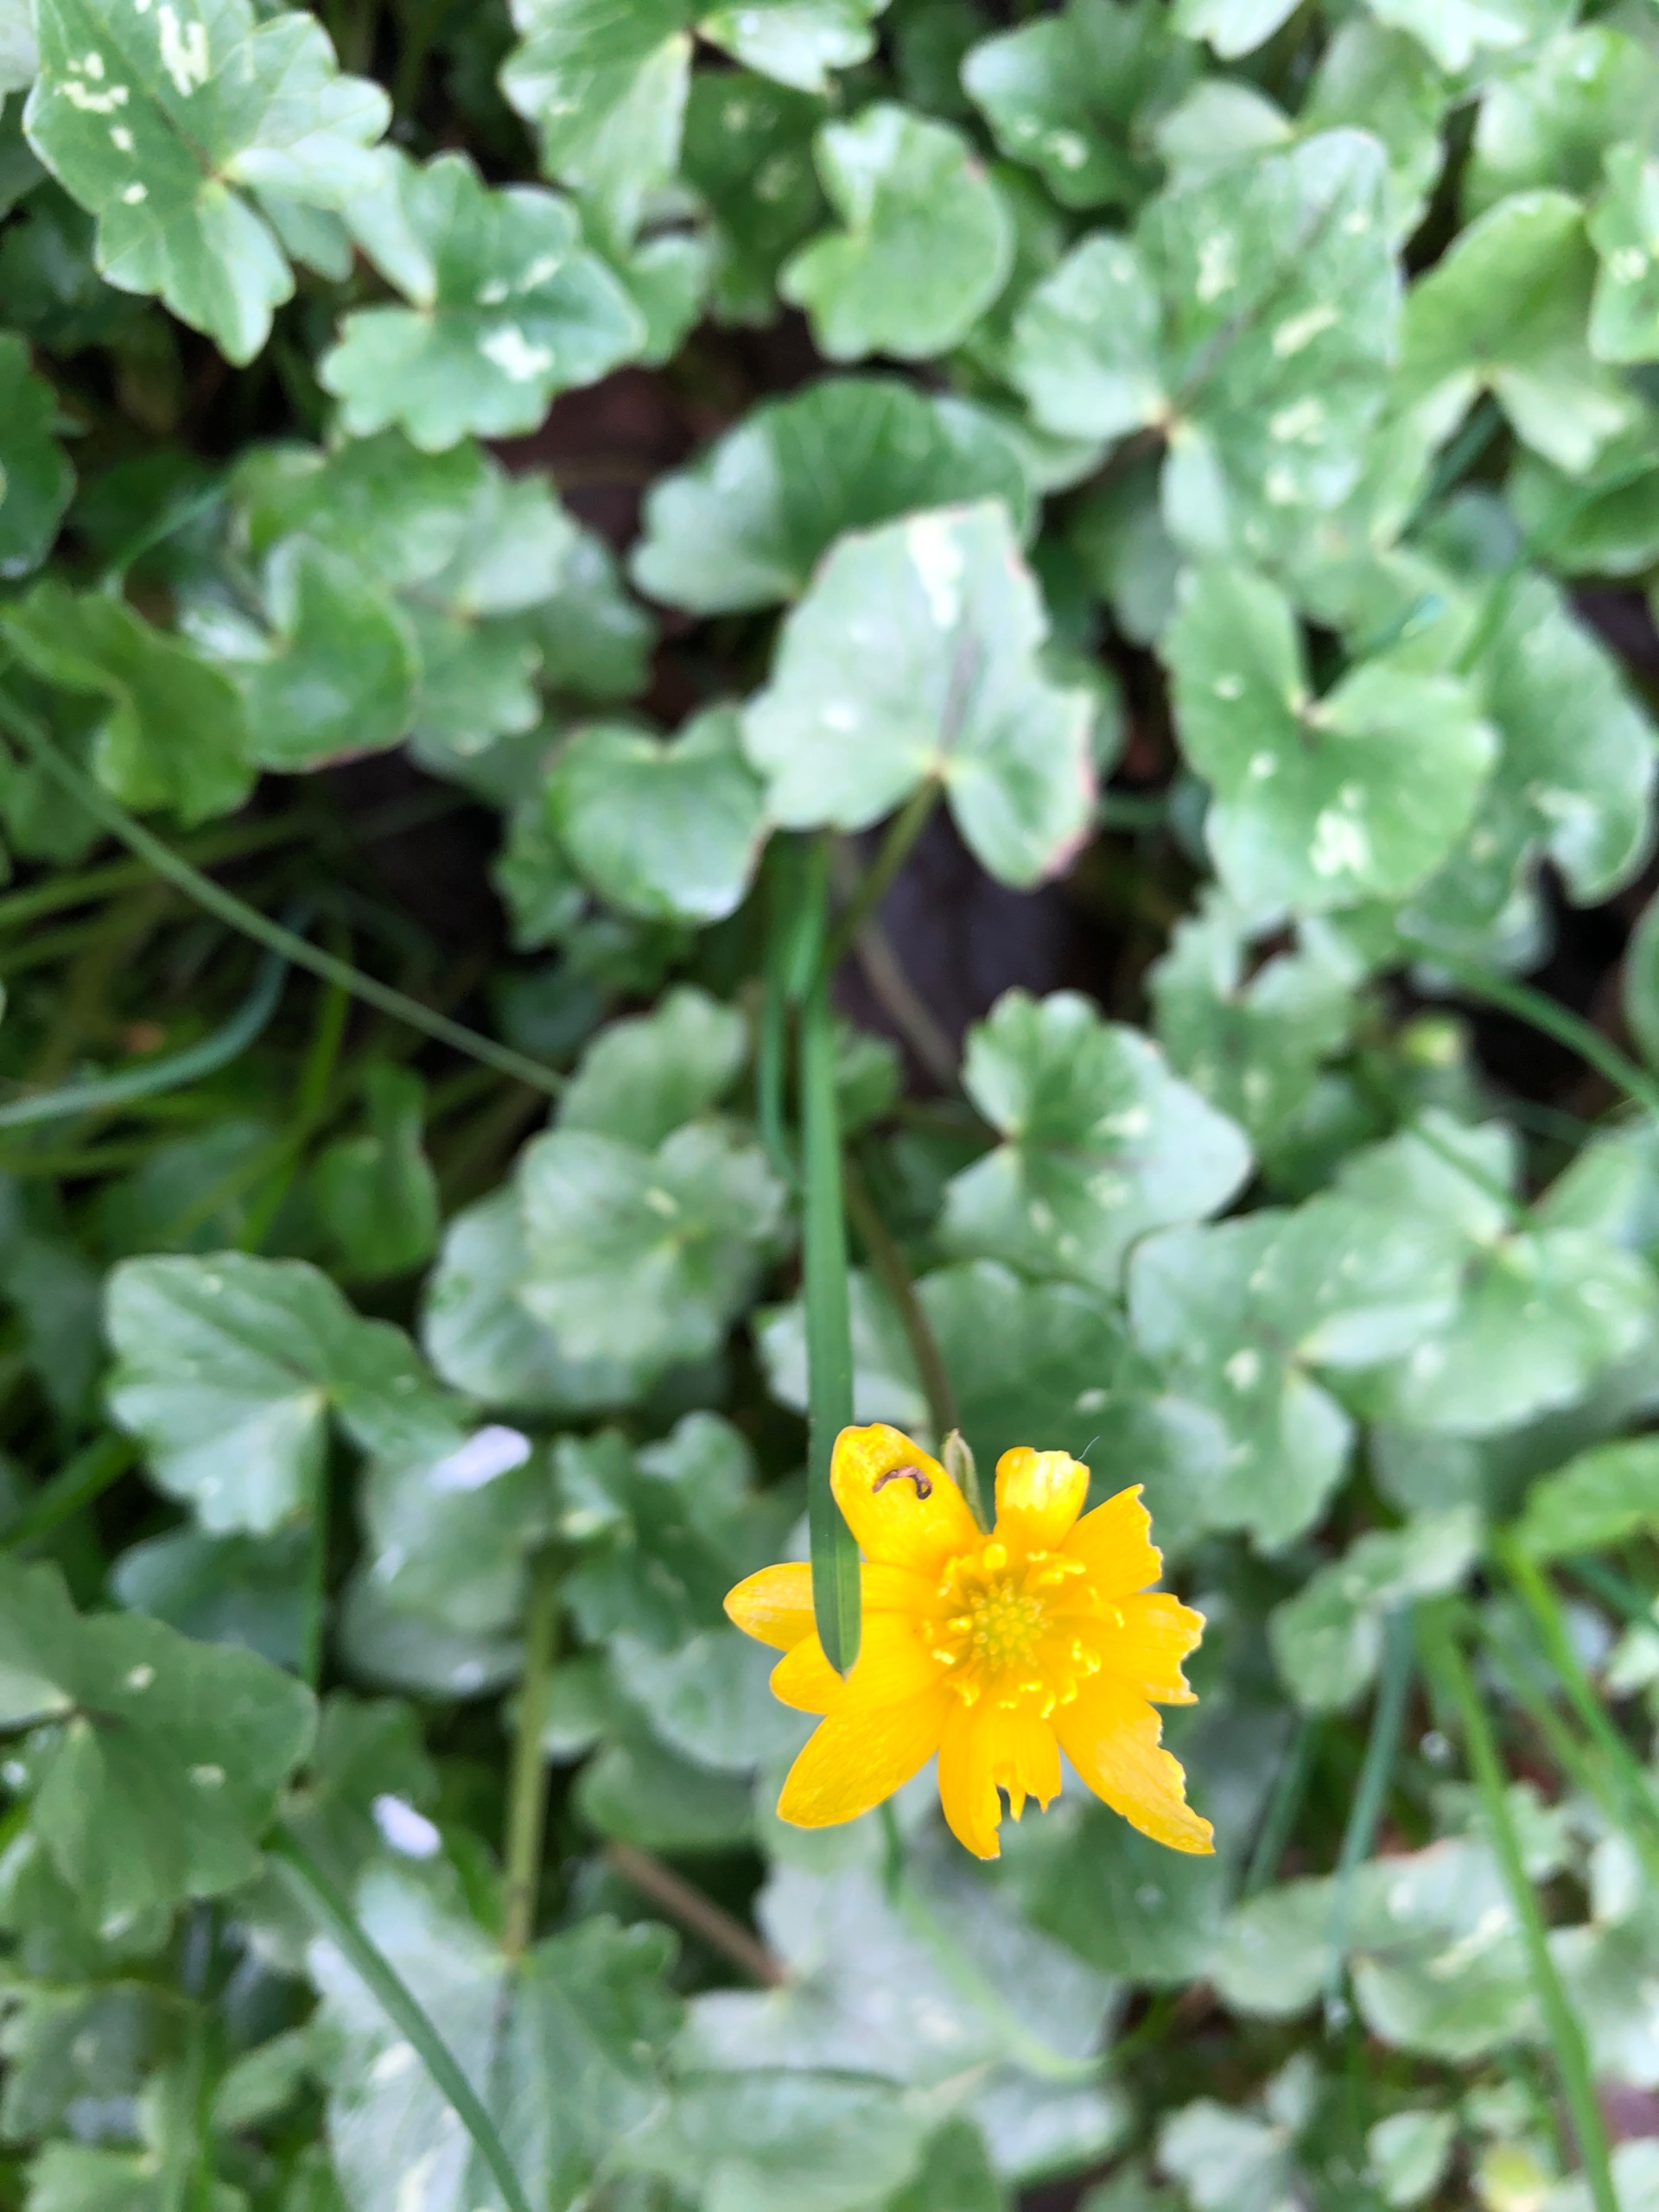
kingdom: Plantae
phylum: Tracheophyta
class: Magnoliopsida
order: Ranunculales
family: Ranunculaceae
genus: Ficaria
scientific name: Ficaria verna
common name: Vorterod
